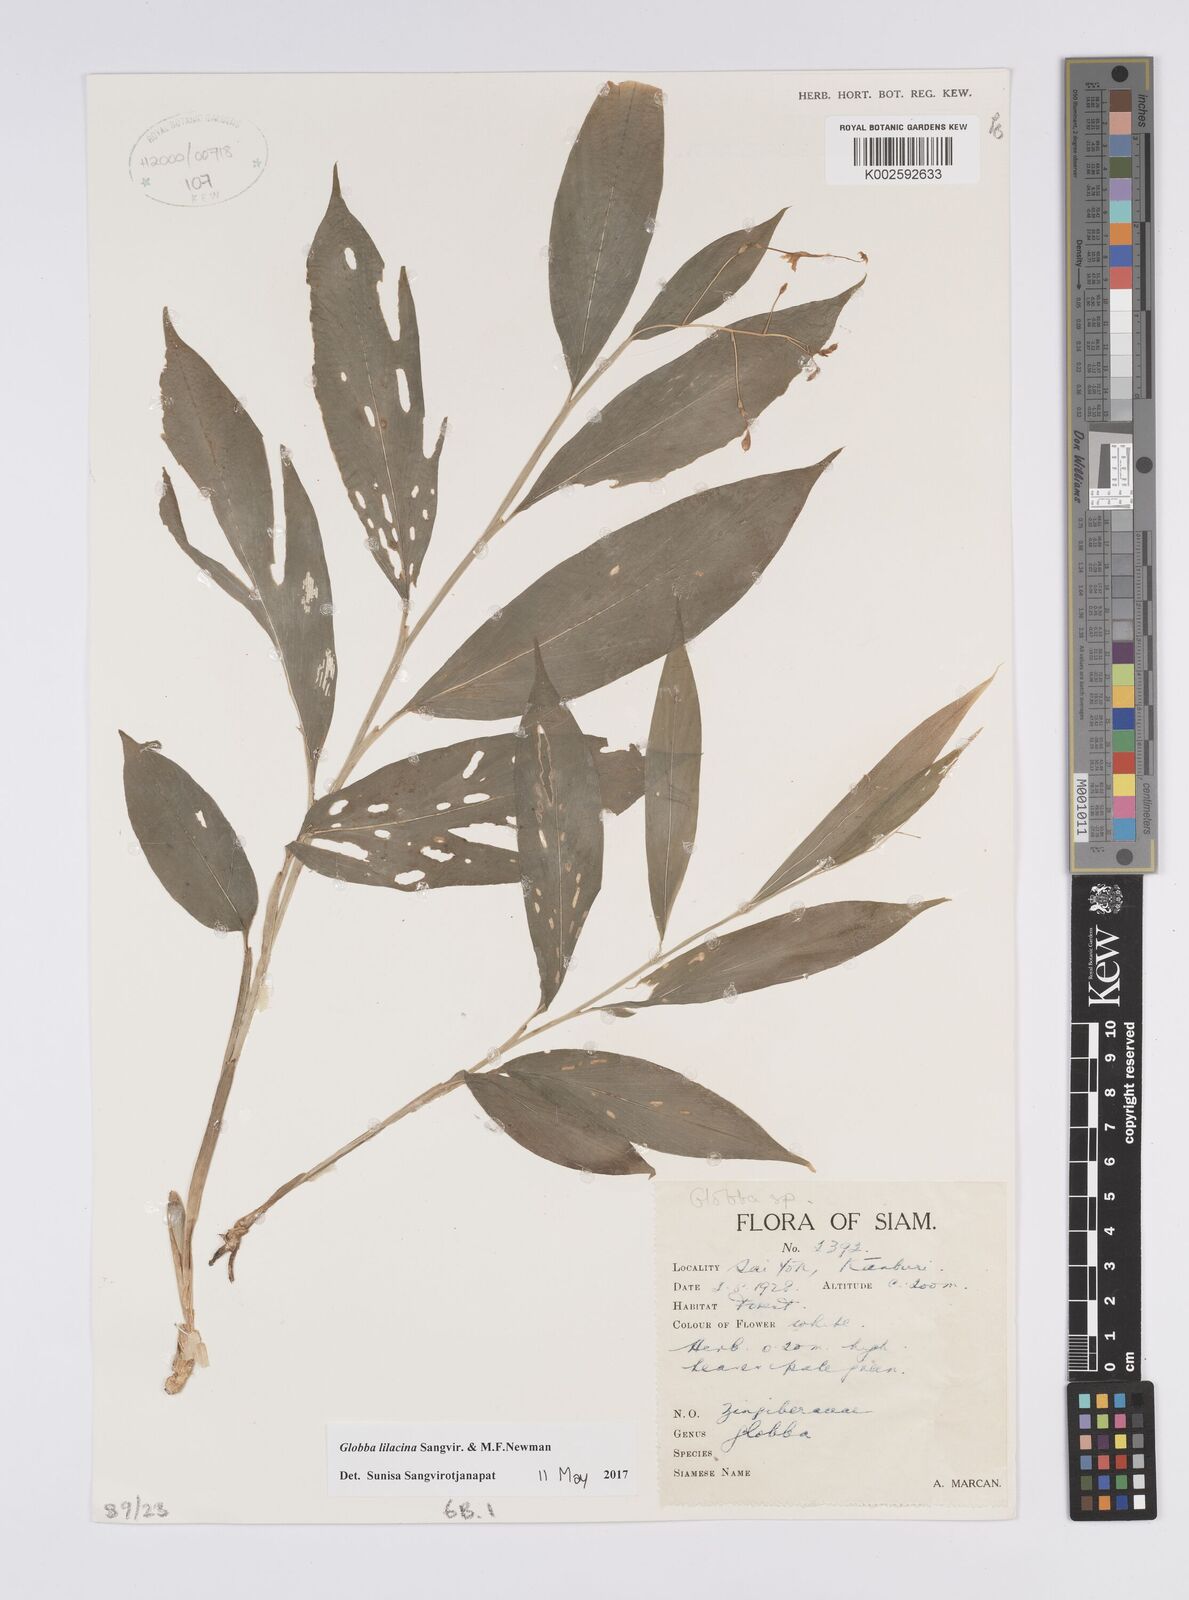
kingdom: Plantae
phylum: Tracheophyta
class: Liliopsida
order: Zingiberales
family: Zingiberaceae
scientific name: Zingiberaceae
